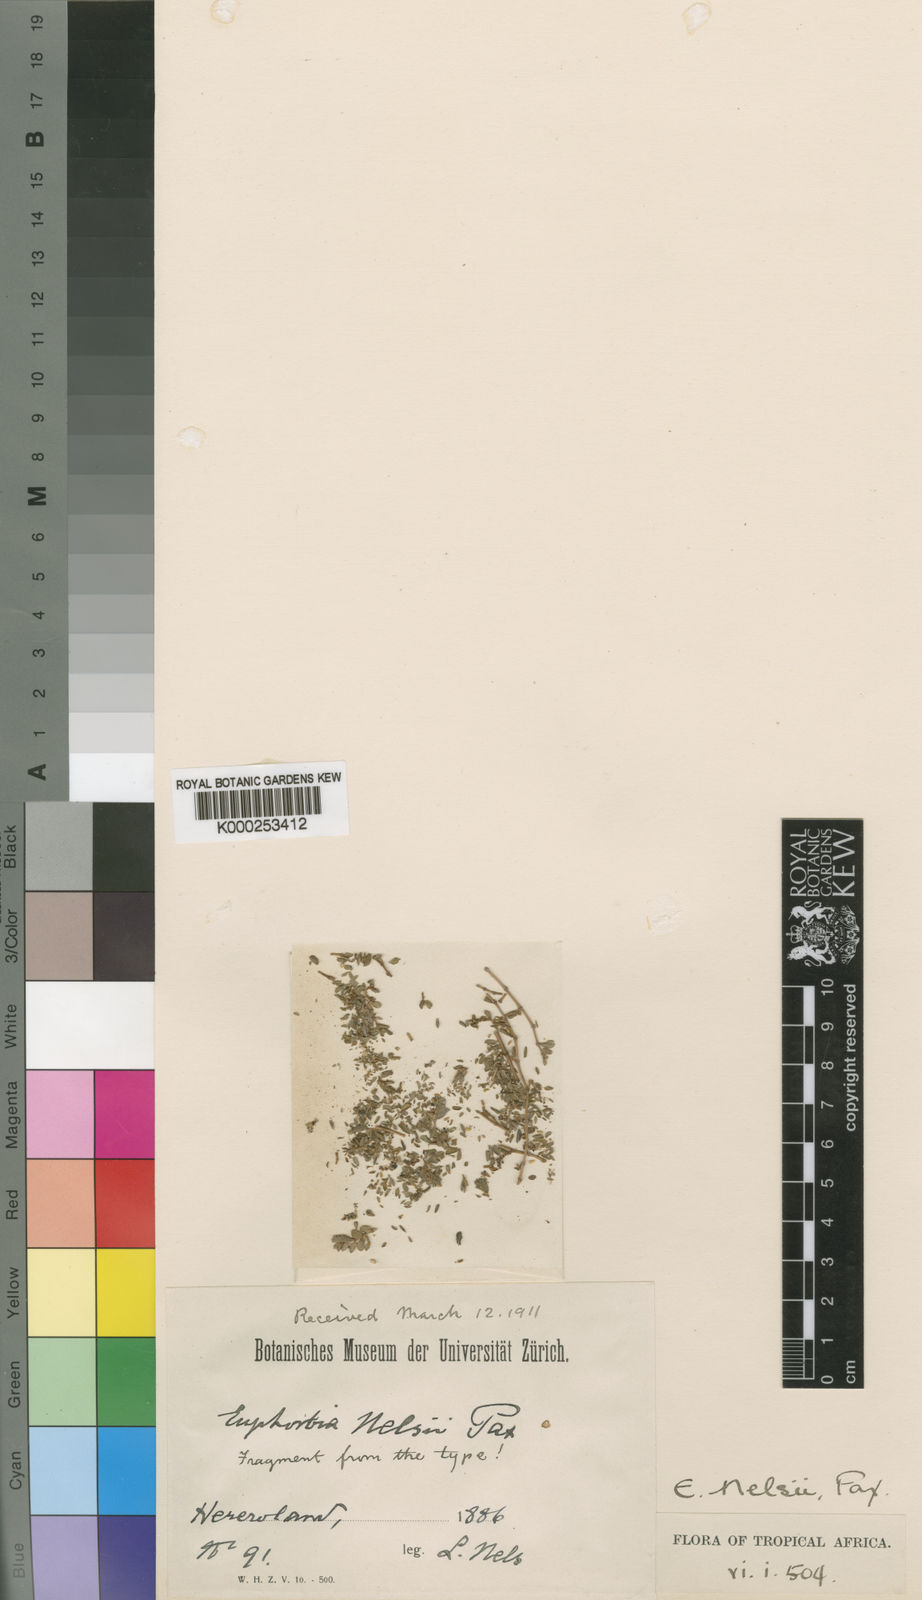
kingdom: Plantae
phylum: Tracheophyta
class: Magnoliopsida
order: Malpighiales
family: Euphorbiaceae
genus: Euphorbia
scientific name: Euphorbia inaequilatera
